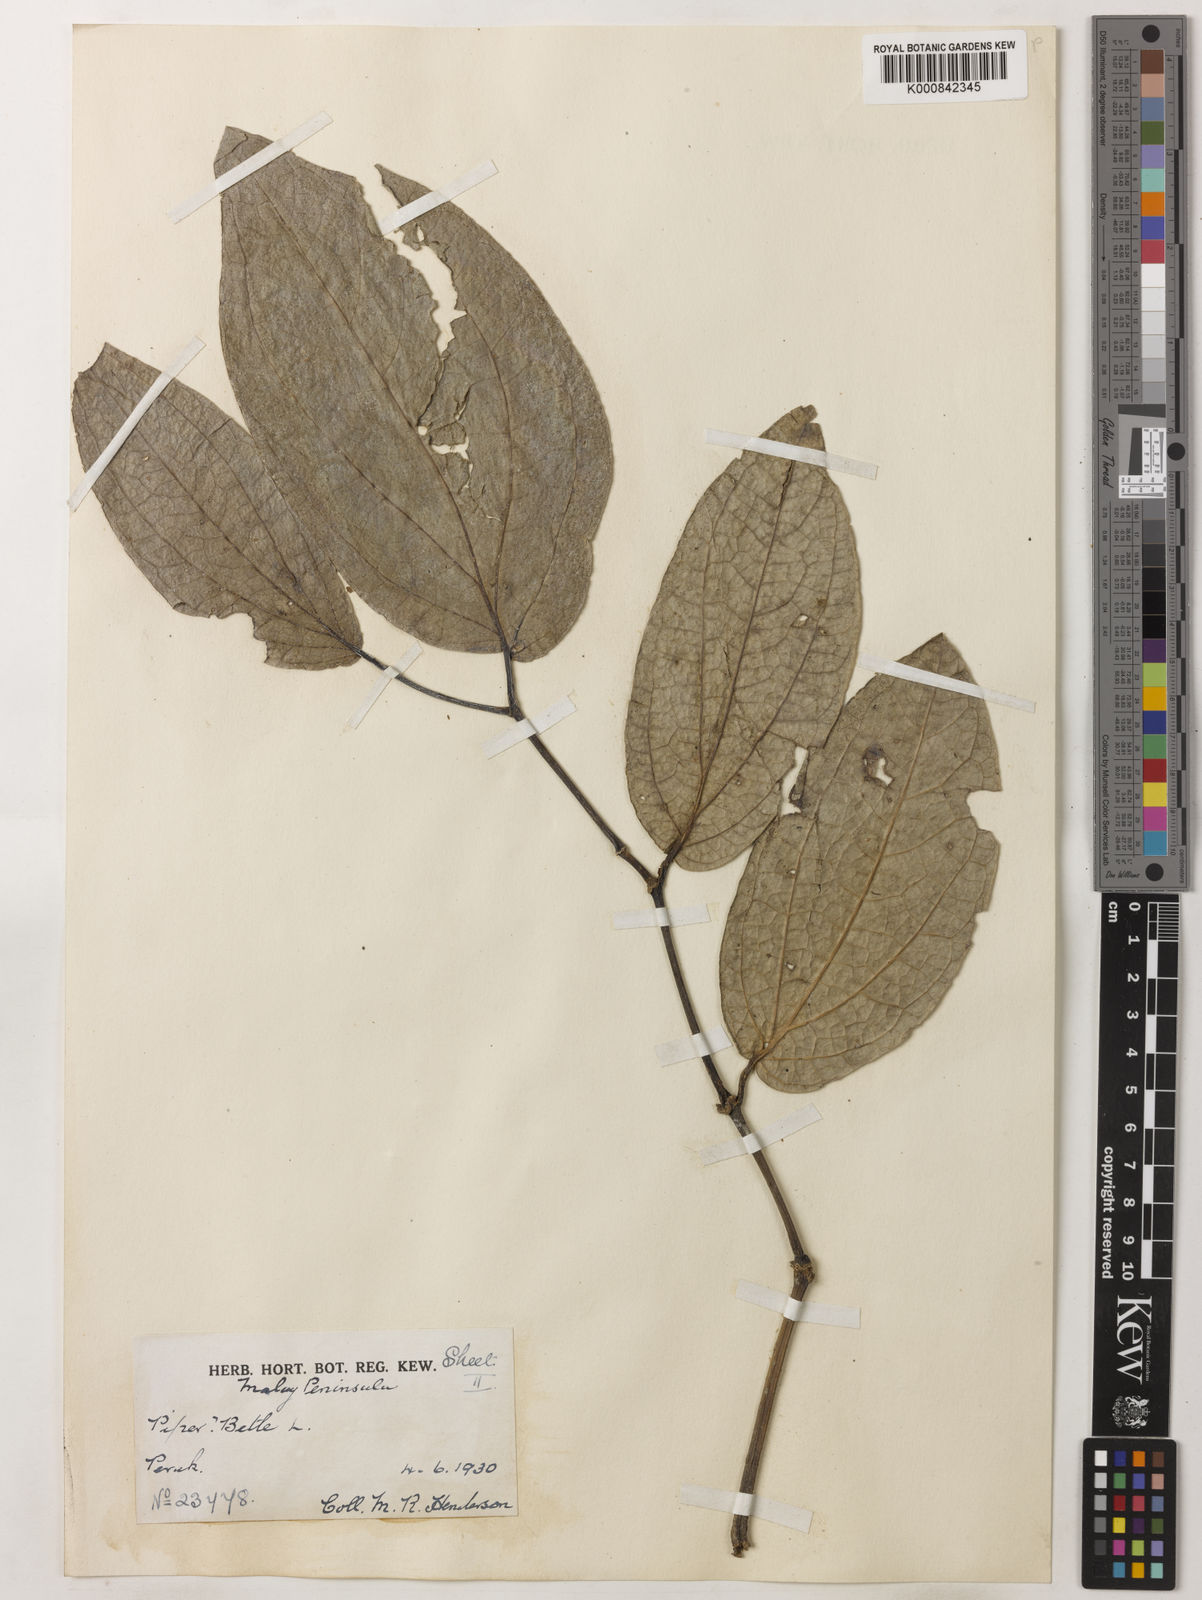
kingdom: Plantae
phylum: Tracheophyta
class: Magnoliopsida
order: Piperales
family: Piperaceae
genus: Piper
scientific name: Piper betle
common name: Betel pepper
